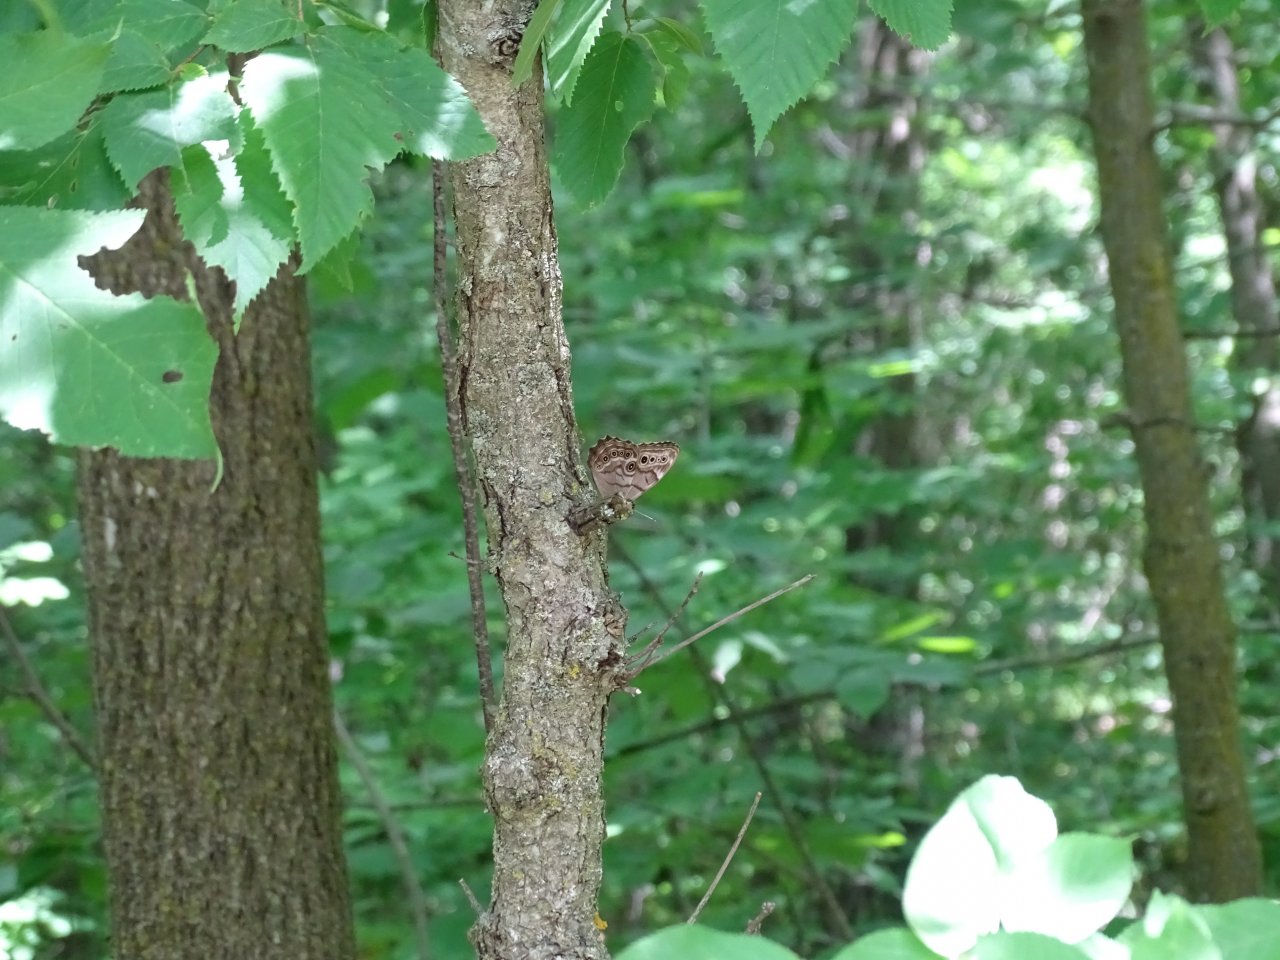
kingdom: Animalia
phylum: Arthropoda
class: Insecta
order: Lepidoptera
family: Nymphalidae
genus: Lethe
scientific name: Lethe anthedon
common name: Northern Pearly-Eye
